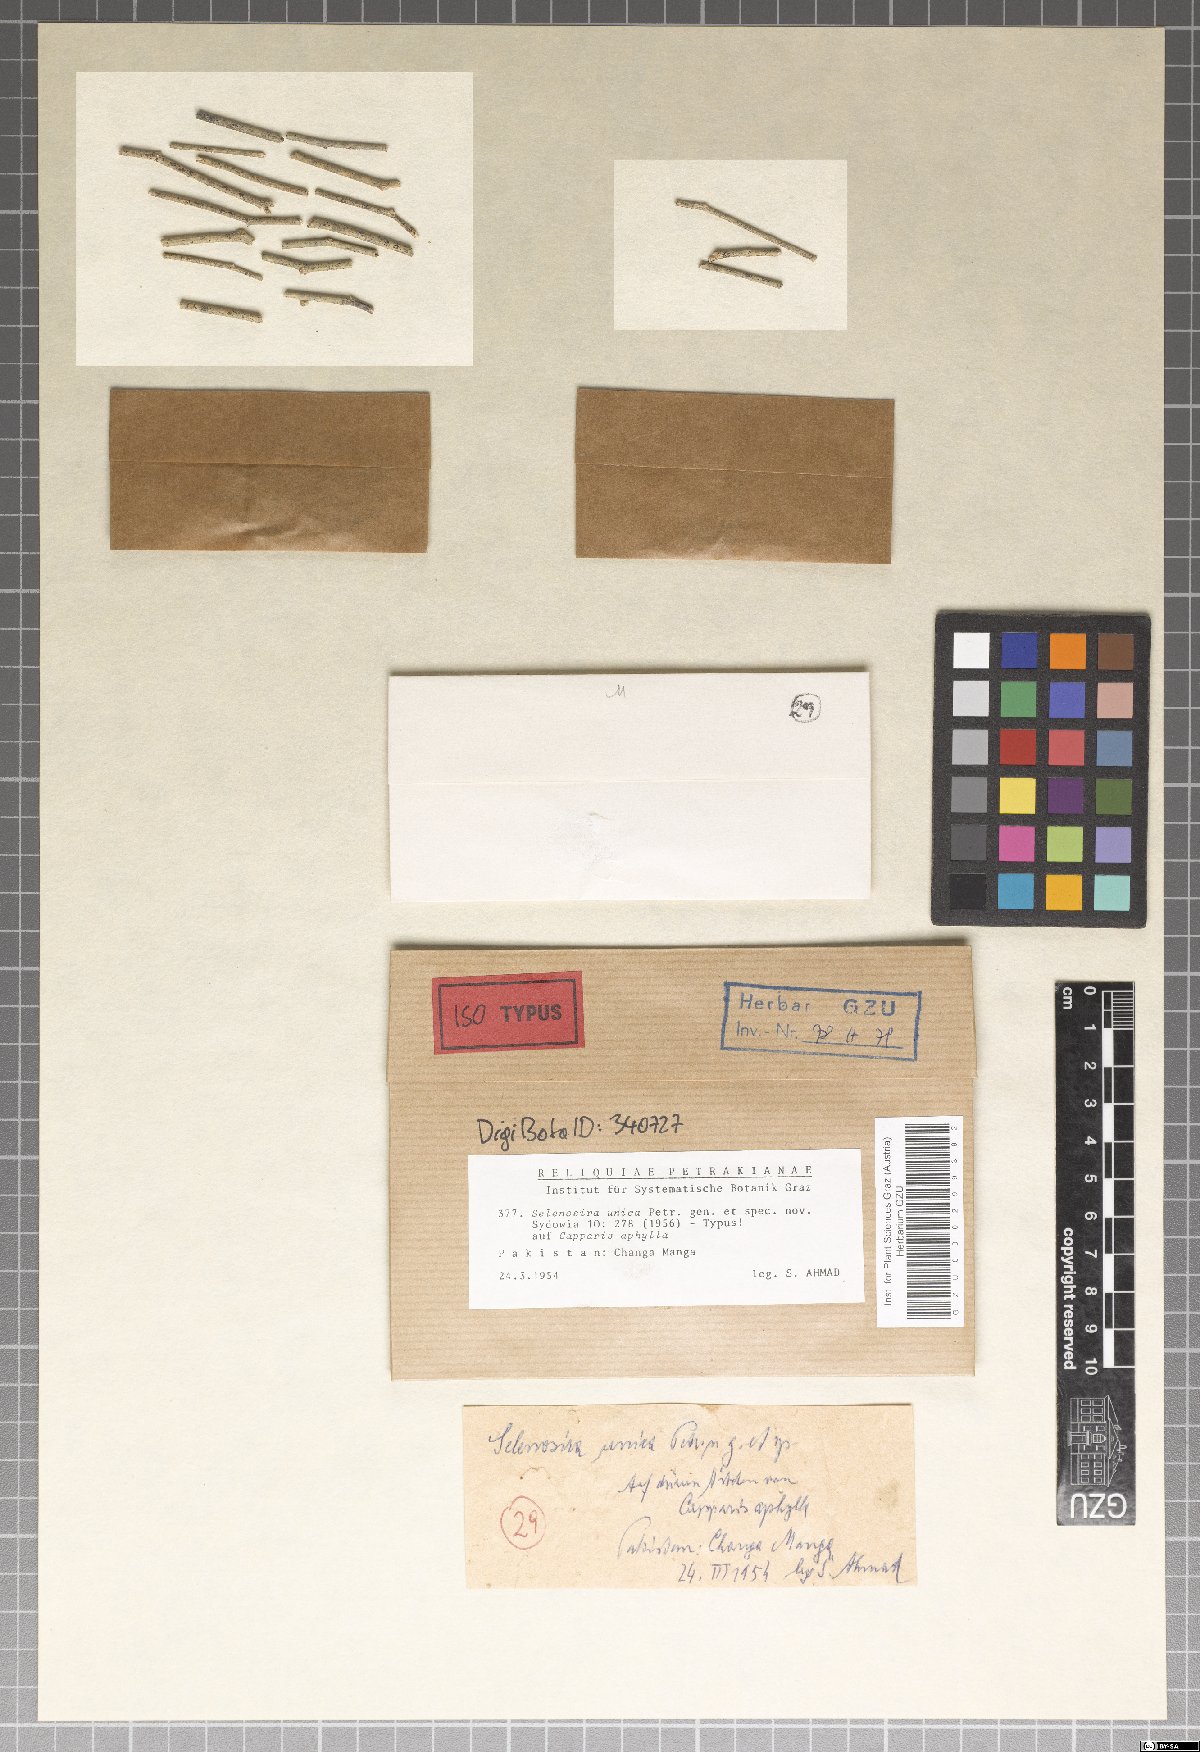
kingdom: Fungi
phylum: Ascomycota
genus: Selenosira
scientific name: Selenosira unica
